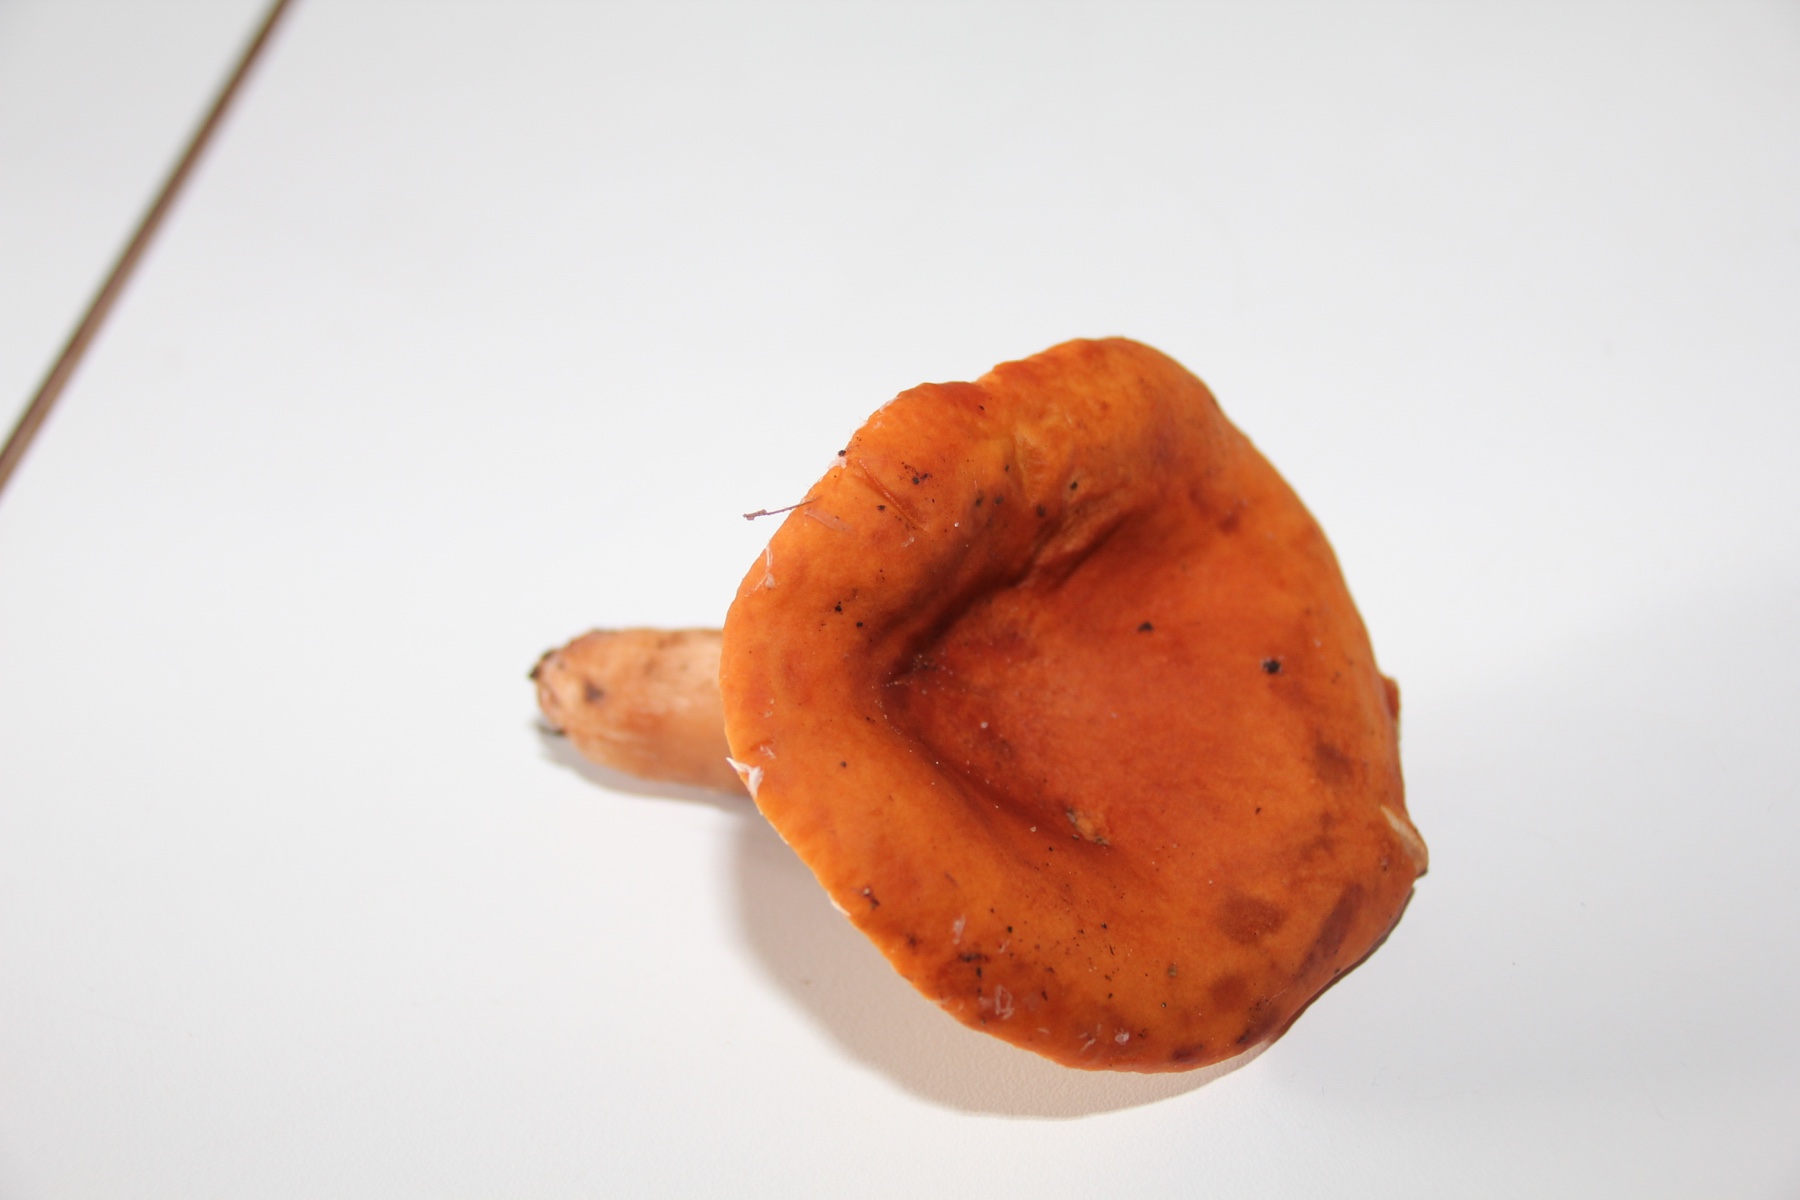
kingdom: Fungi
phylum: Basidiomycota
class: Agaricomycetes
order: Russulales
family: Russulaceae
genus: Lactarius
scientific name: Lactarius fulvissimus
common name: ræve-mælkehat
